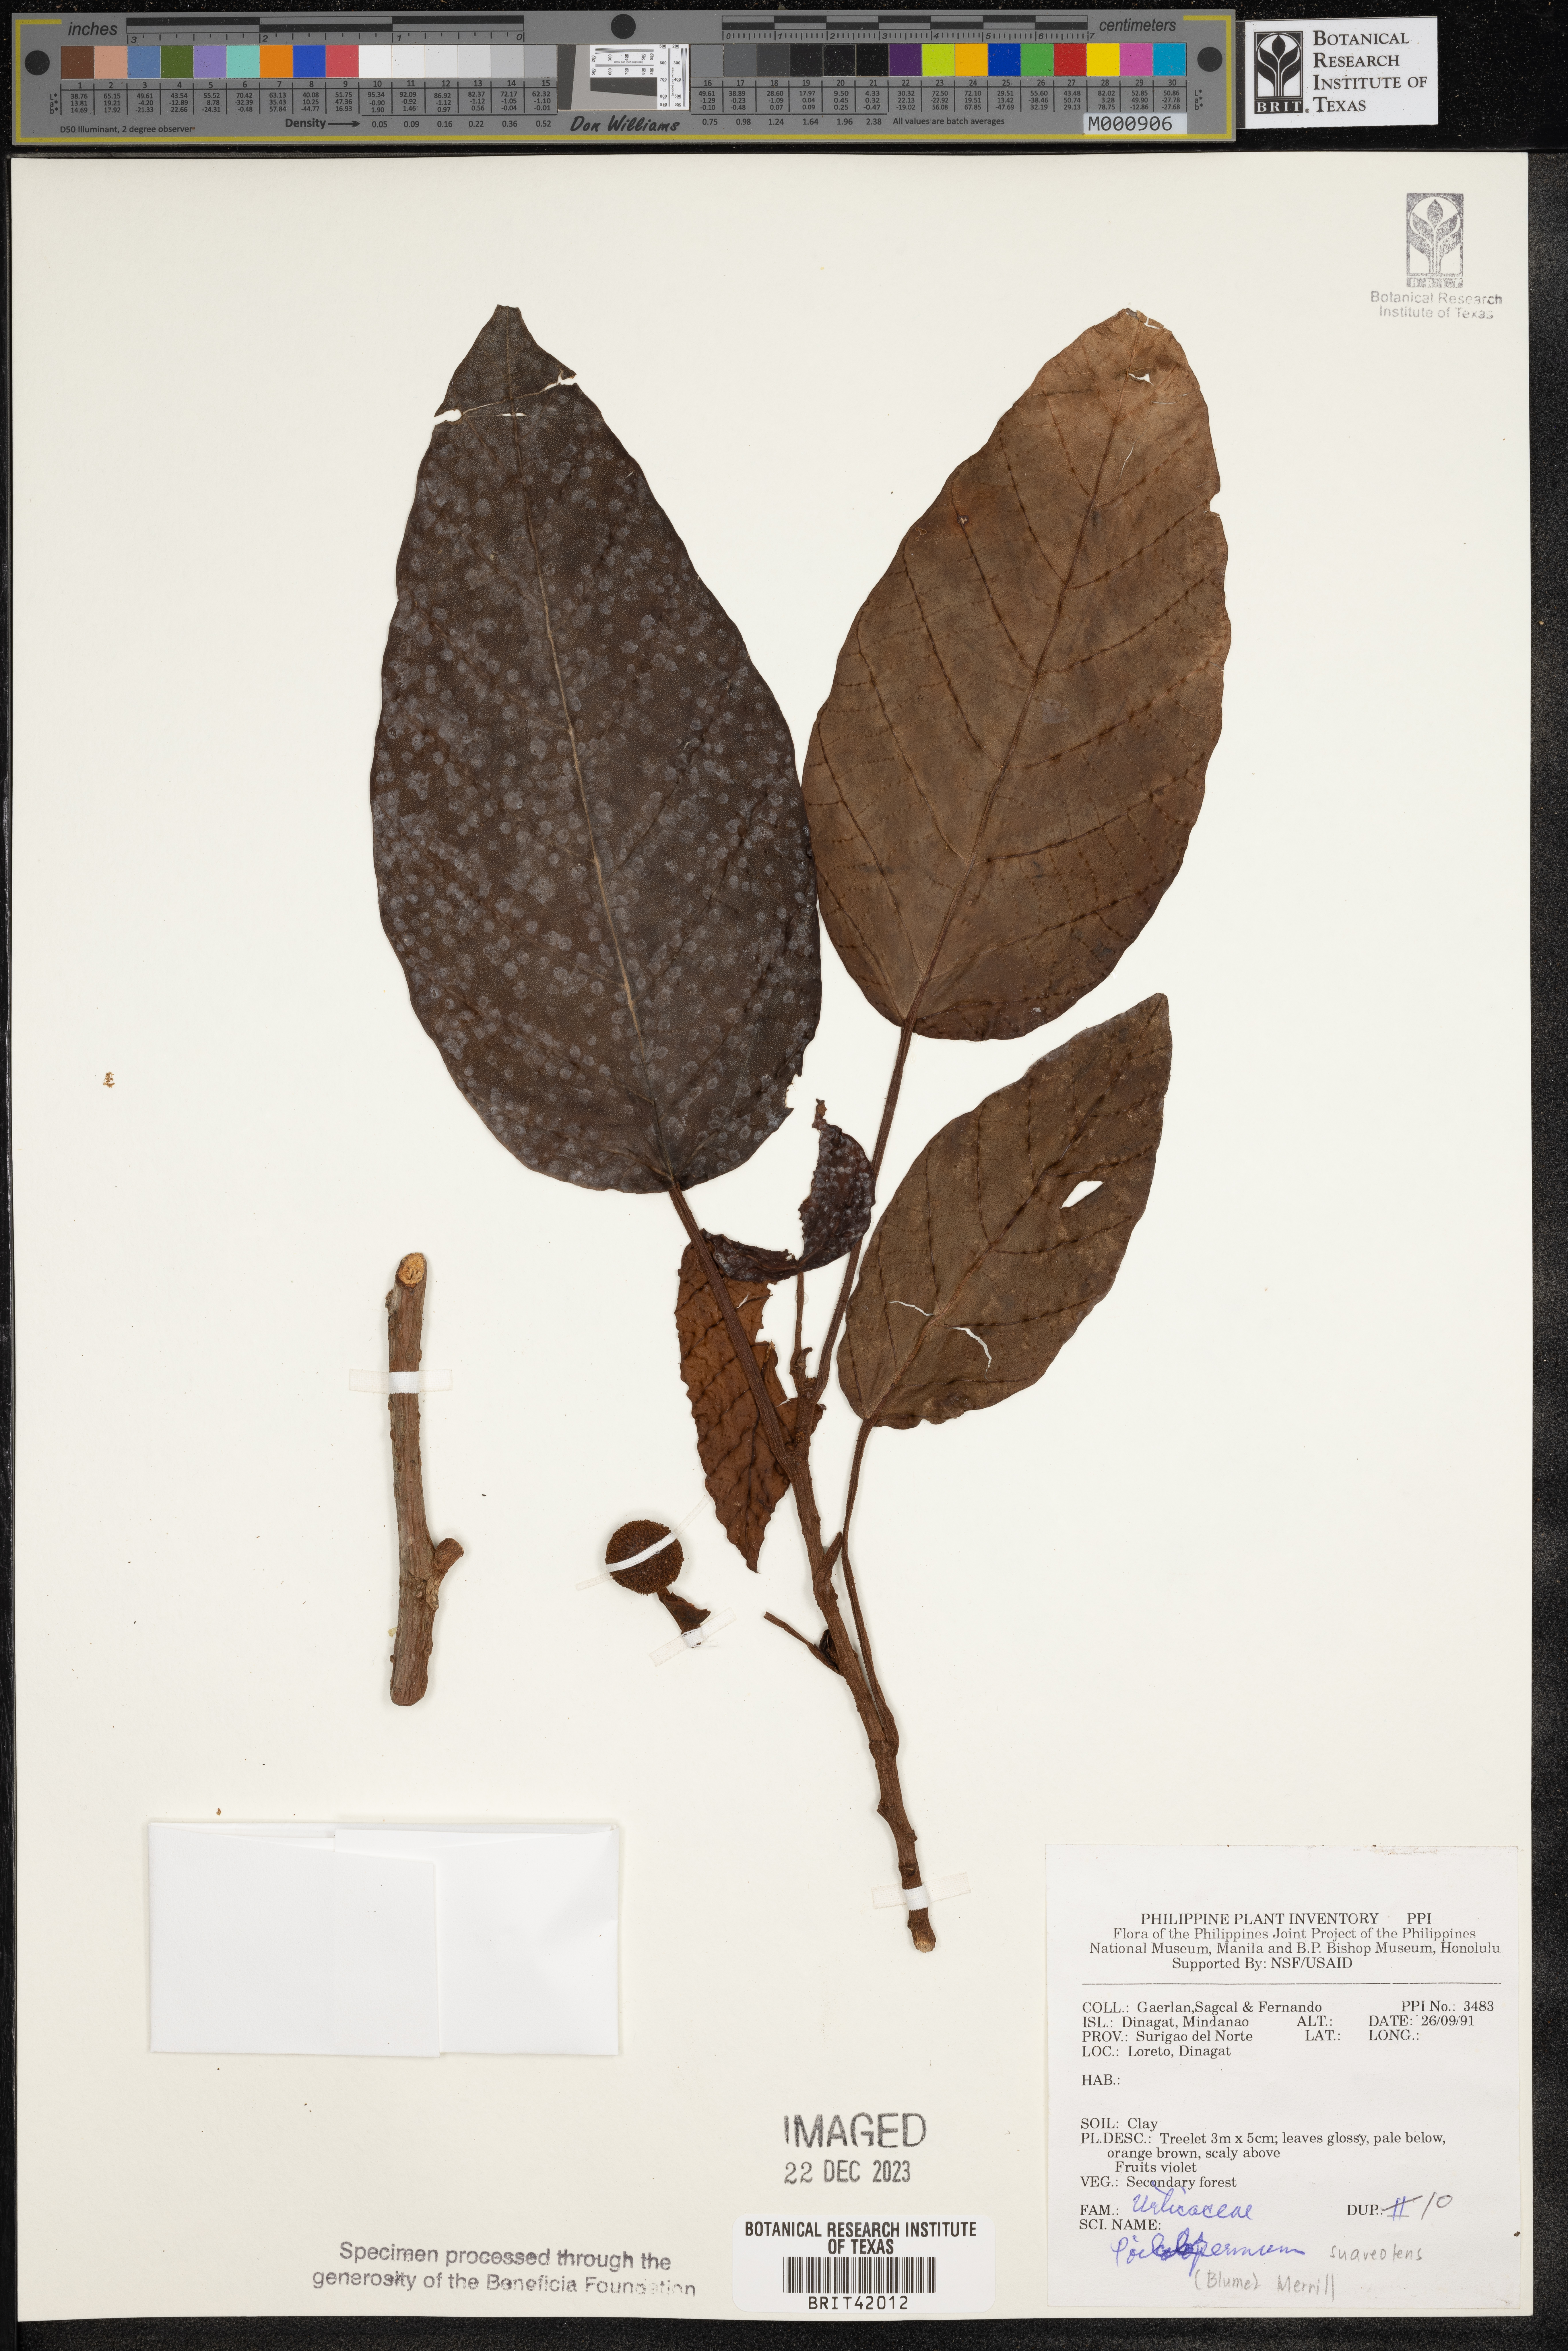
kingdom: Plantae
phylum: Tracheophyta
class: Magnoliopsida
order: Rosales
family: Urticaceae
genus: Poikilospermum
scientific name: Poikilospermum suaveolens
